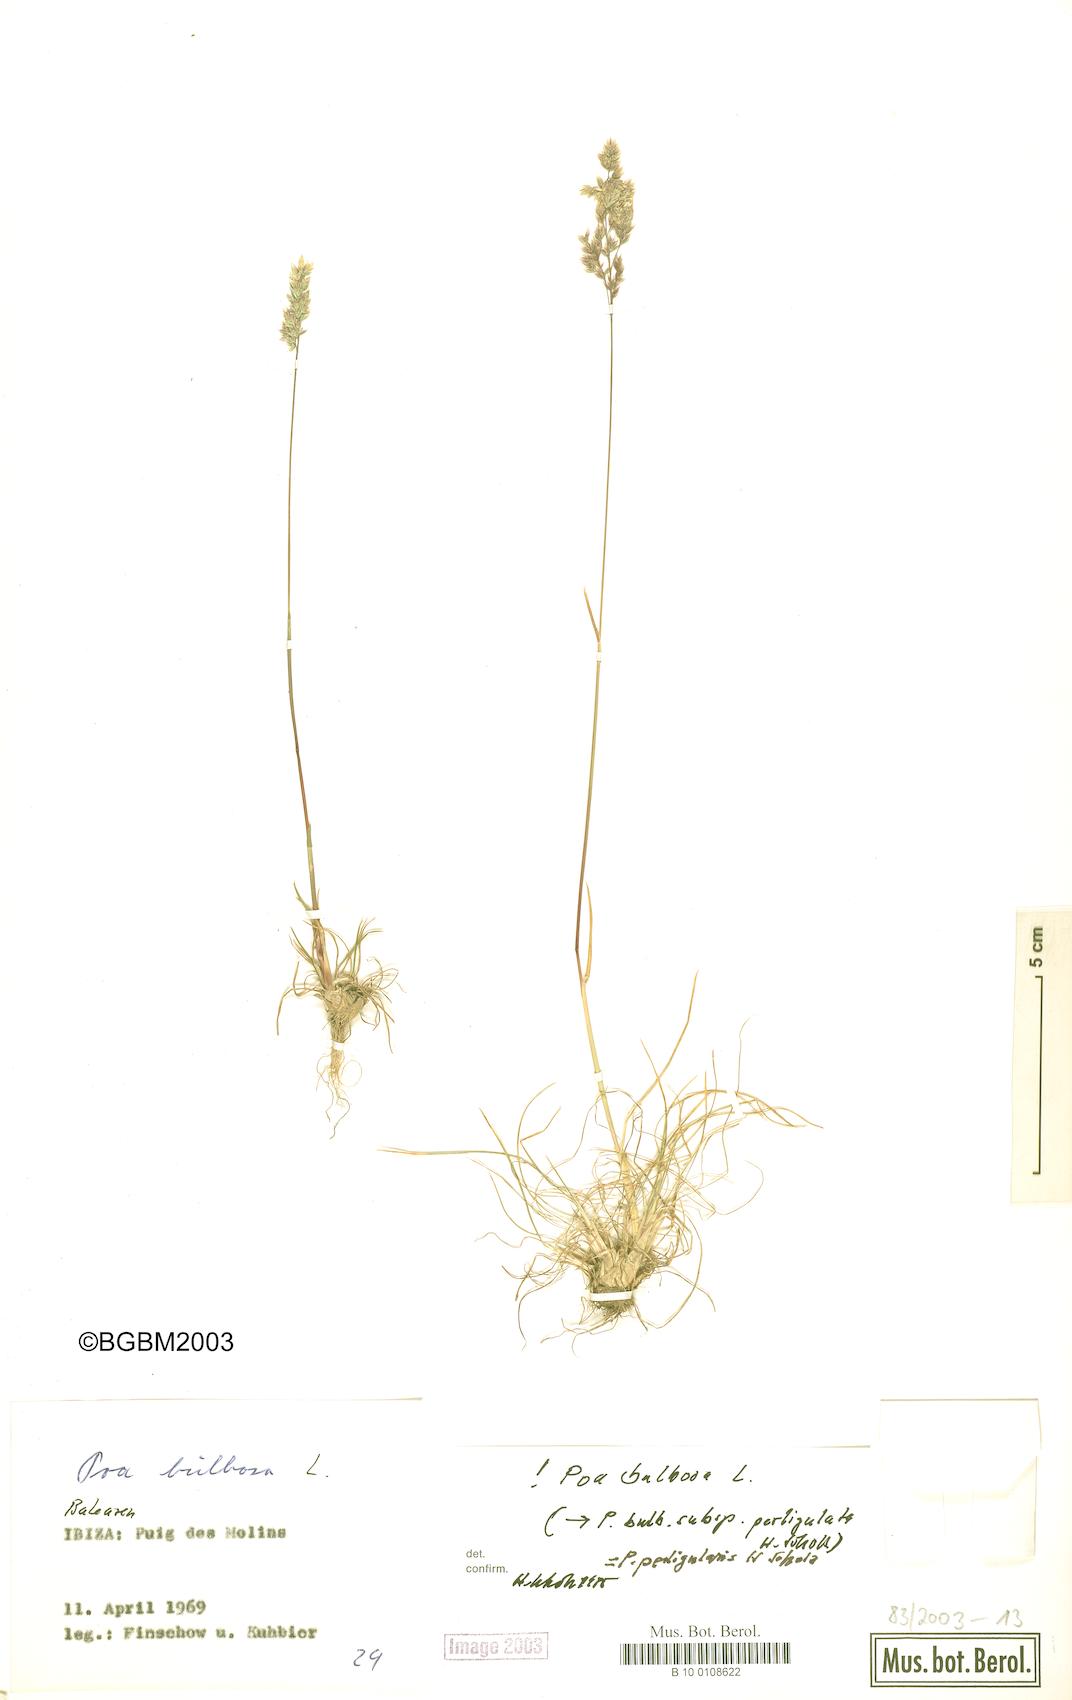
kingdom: Plantae
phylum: Tracheophyta
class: Liliopsida
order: Poales
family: Poaceae
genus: Poa
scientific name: Poa bulbosa
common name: Bulbous bluegrass
